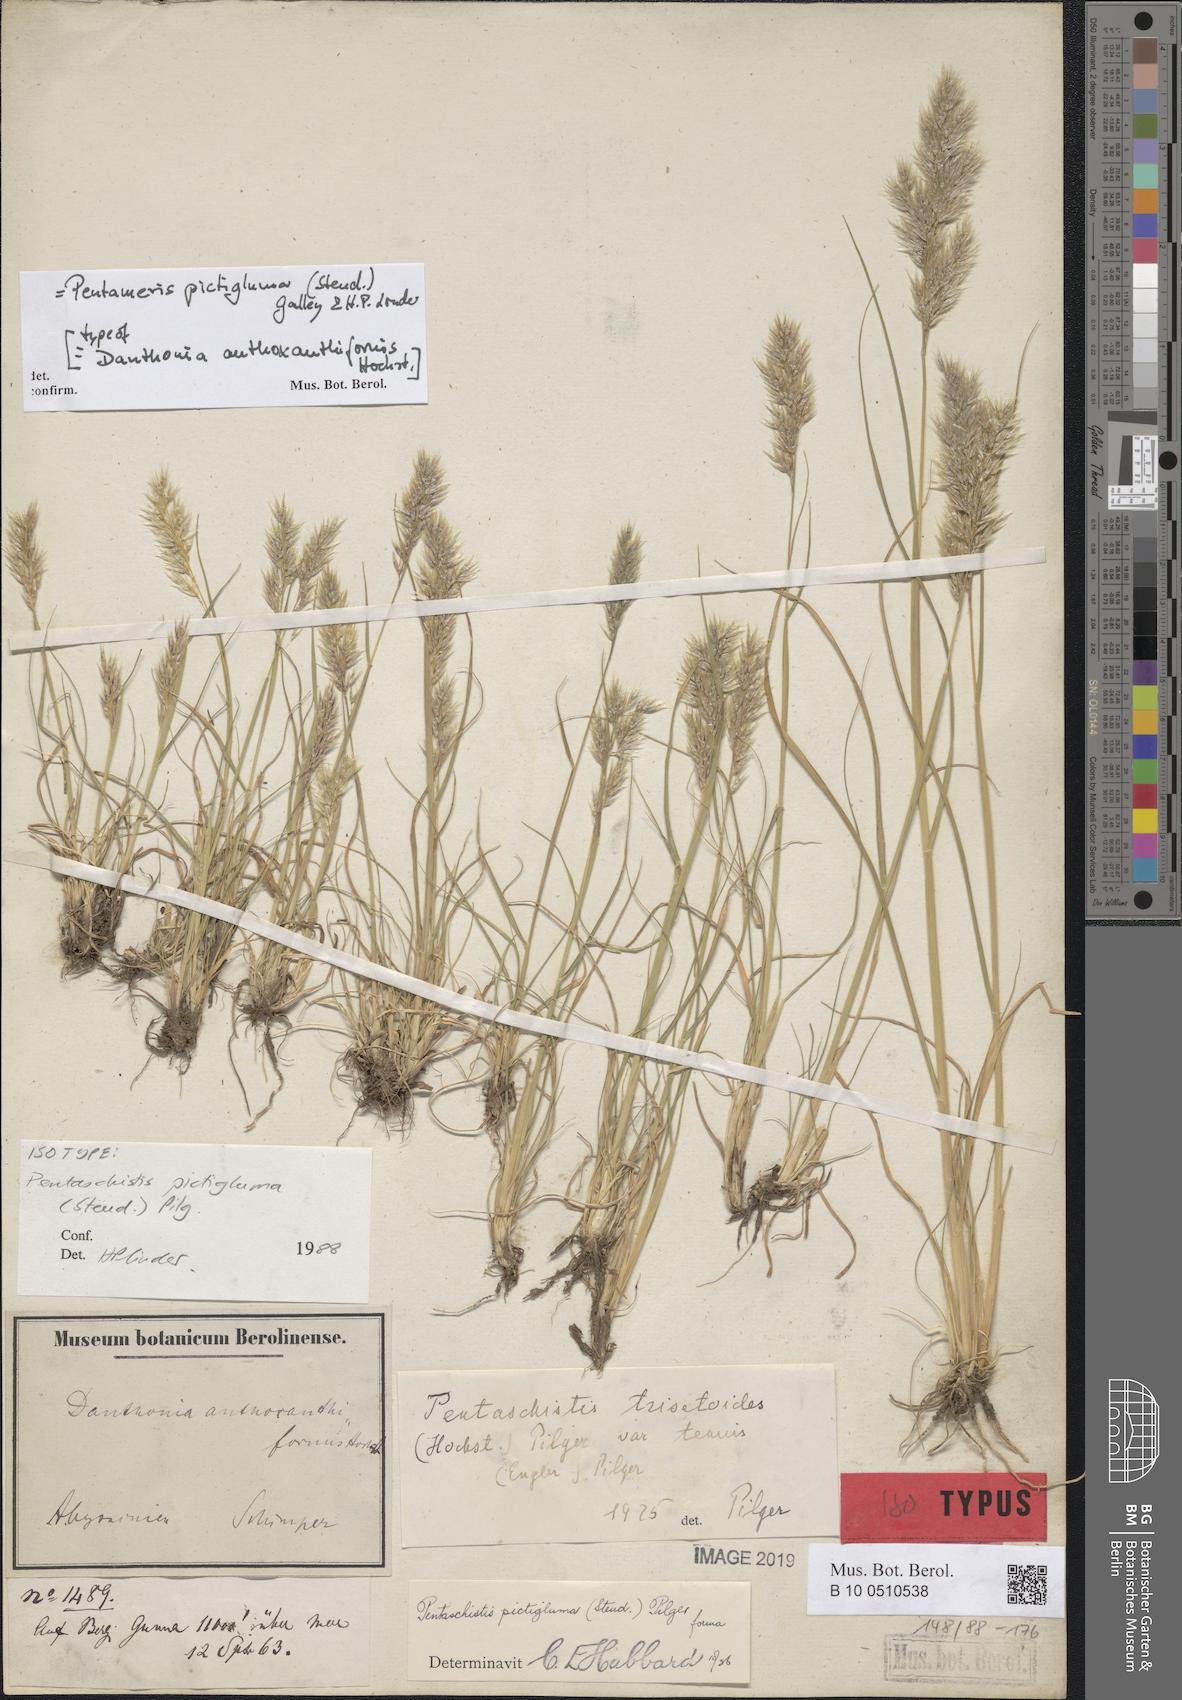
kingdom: Plantae
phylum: Tracheophyta
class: Liliopsida
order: Poales
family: Poaceae
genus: Pentameris
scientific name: Pentameris pictigluma
